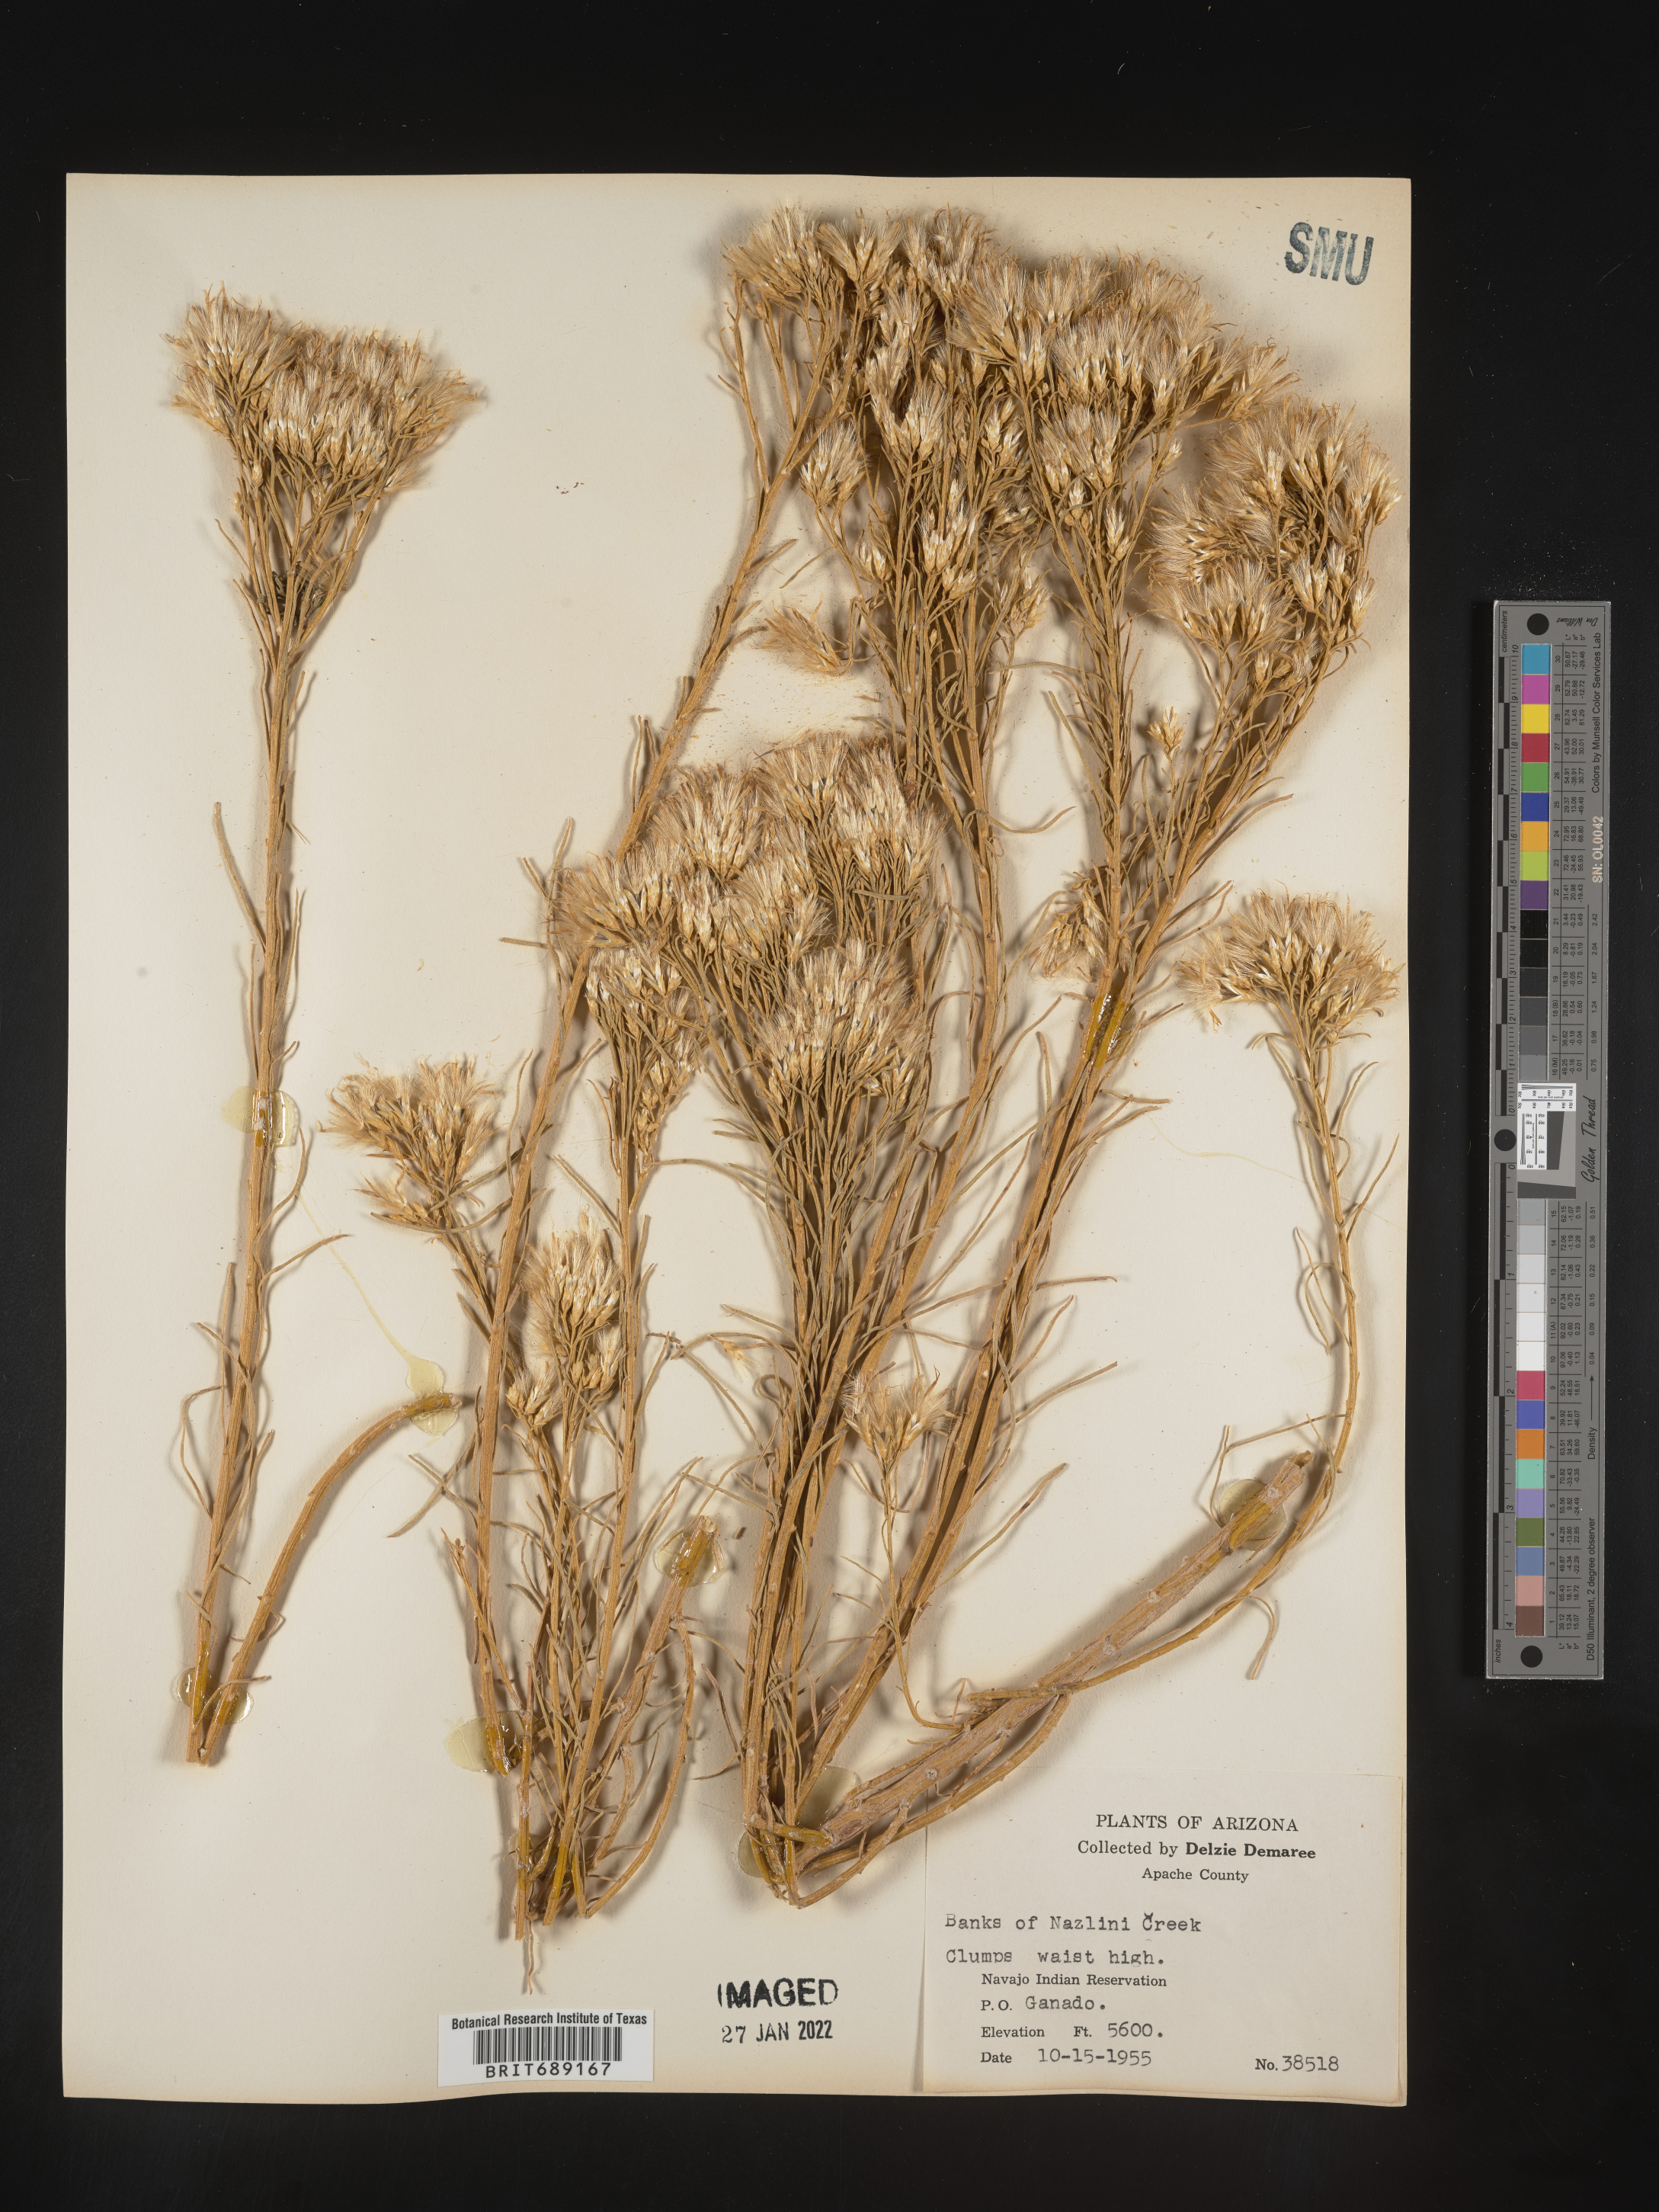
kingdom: Plantae
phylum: Tracheophyta
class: Magnoliopsida
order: Asterales
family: Asteraceae
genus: Chrysothamnus
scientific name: Chrysothamnus
